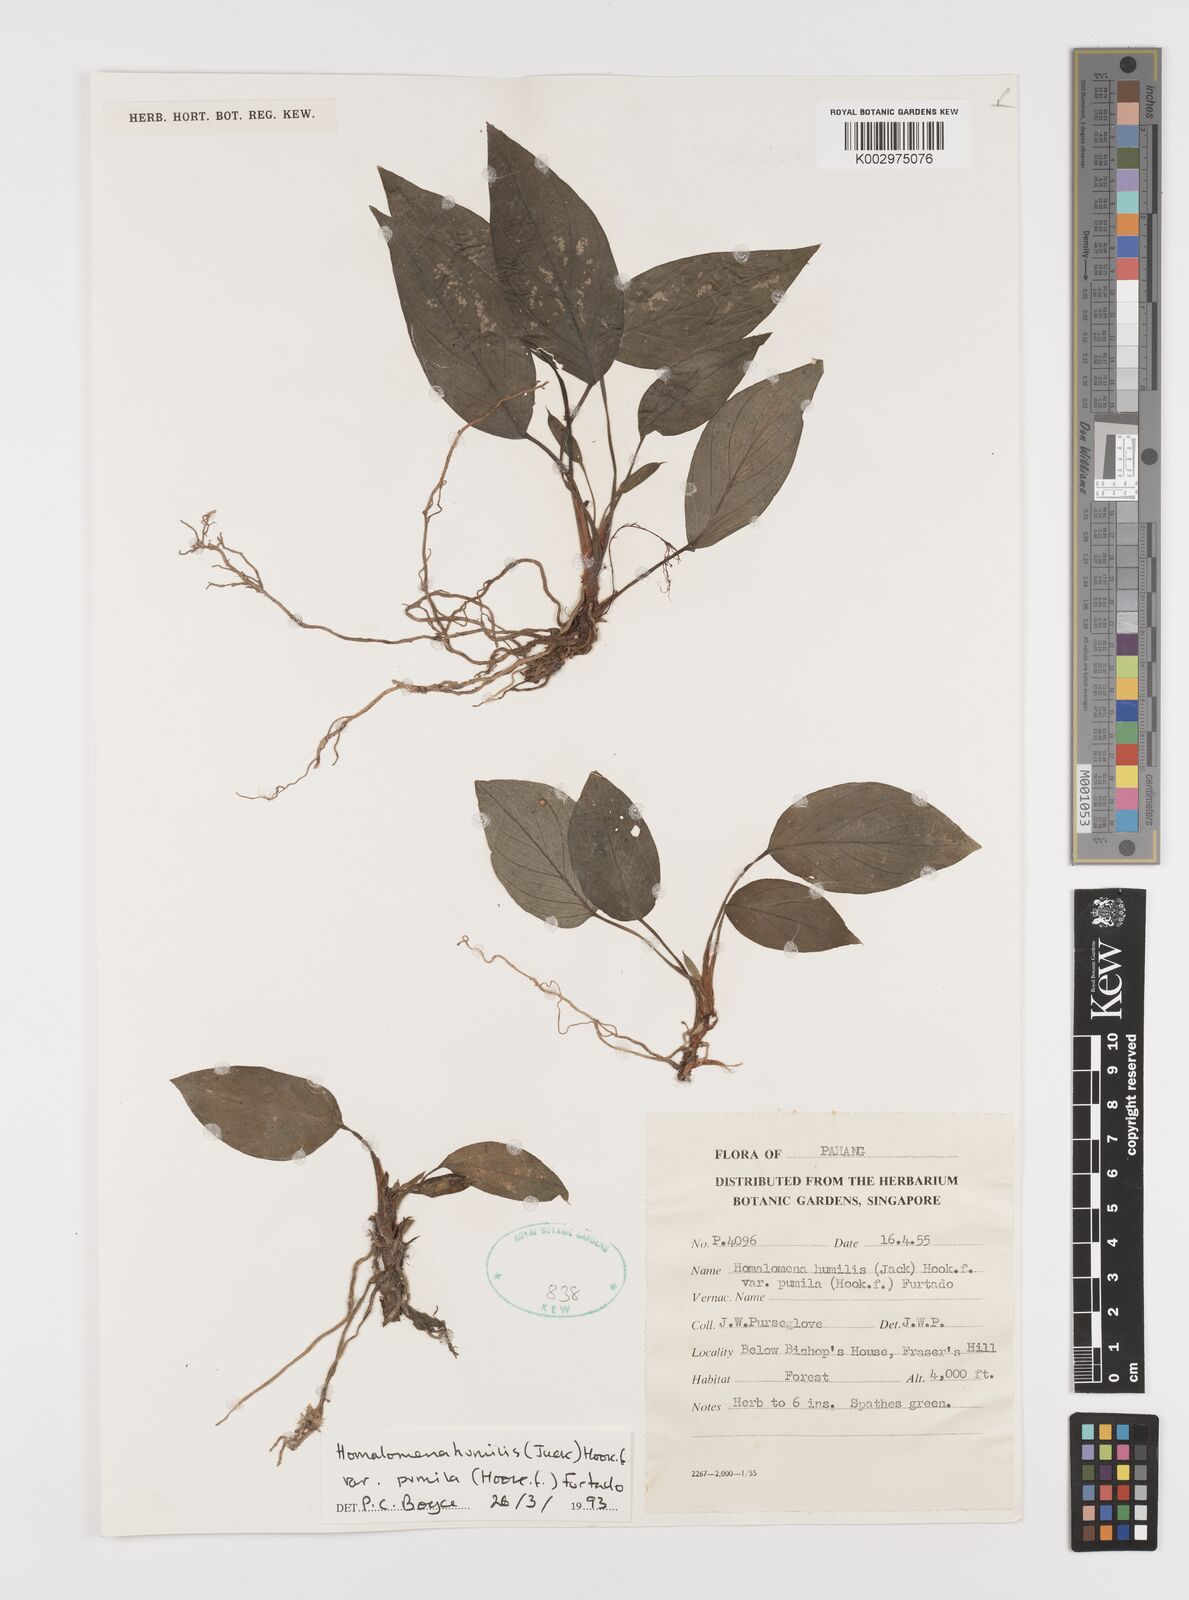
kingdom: Plantae
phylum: Tracheophyta
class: Liliopsida
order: Alismatales
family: Araceae
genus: Homalomena
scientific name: Homalomena humilis
